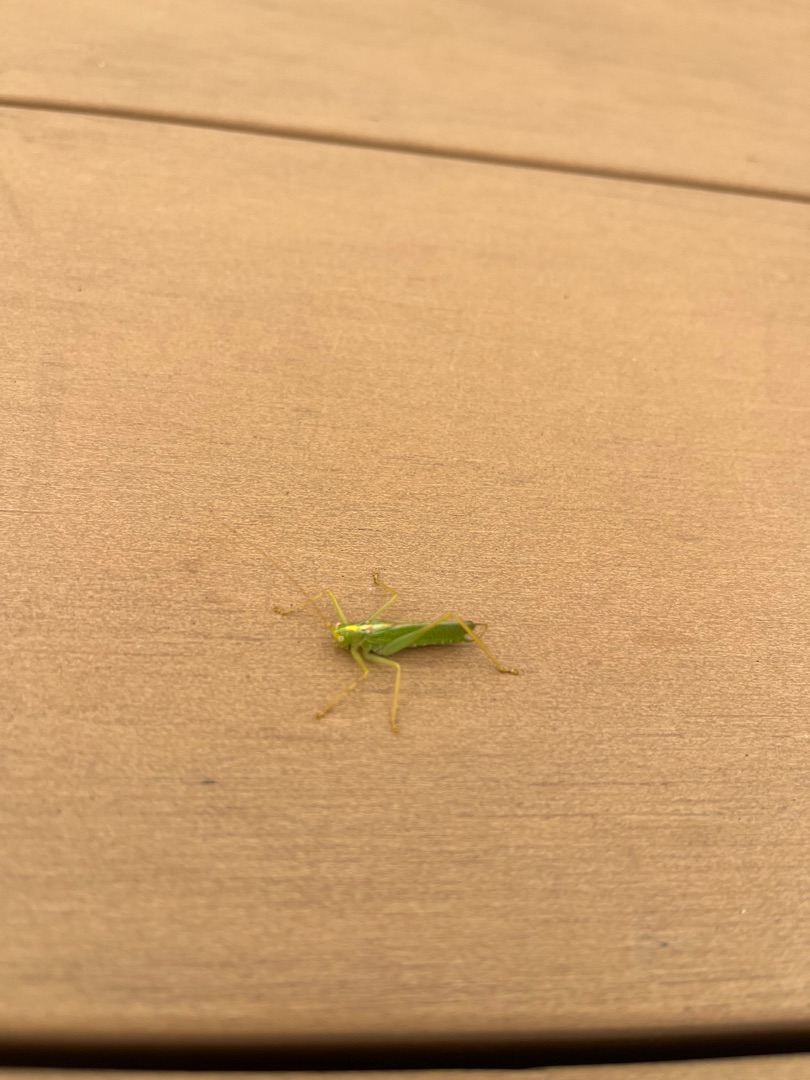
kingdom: Animalia
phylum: Arthropoda
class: Insecta
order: Orthoptera
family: Tettigoniidae
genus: Meconema
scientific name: Meconema thalassinum
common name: Egegræshoppe
